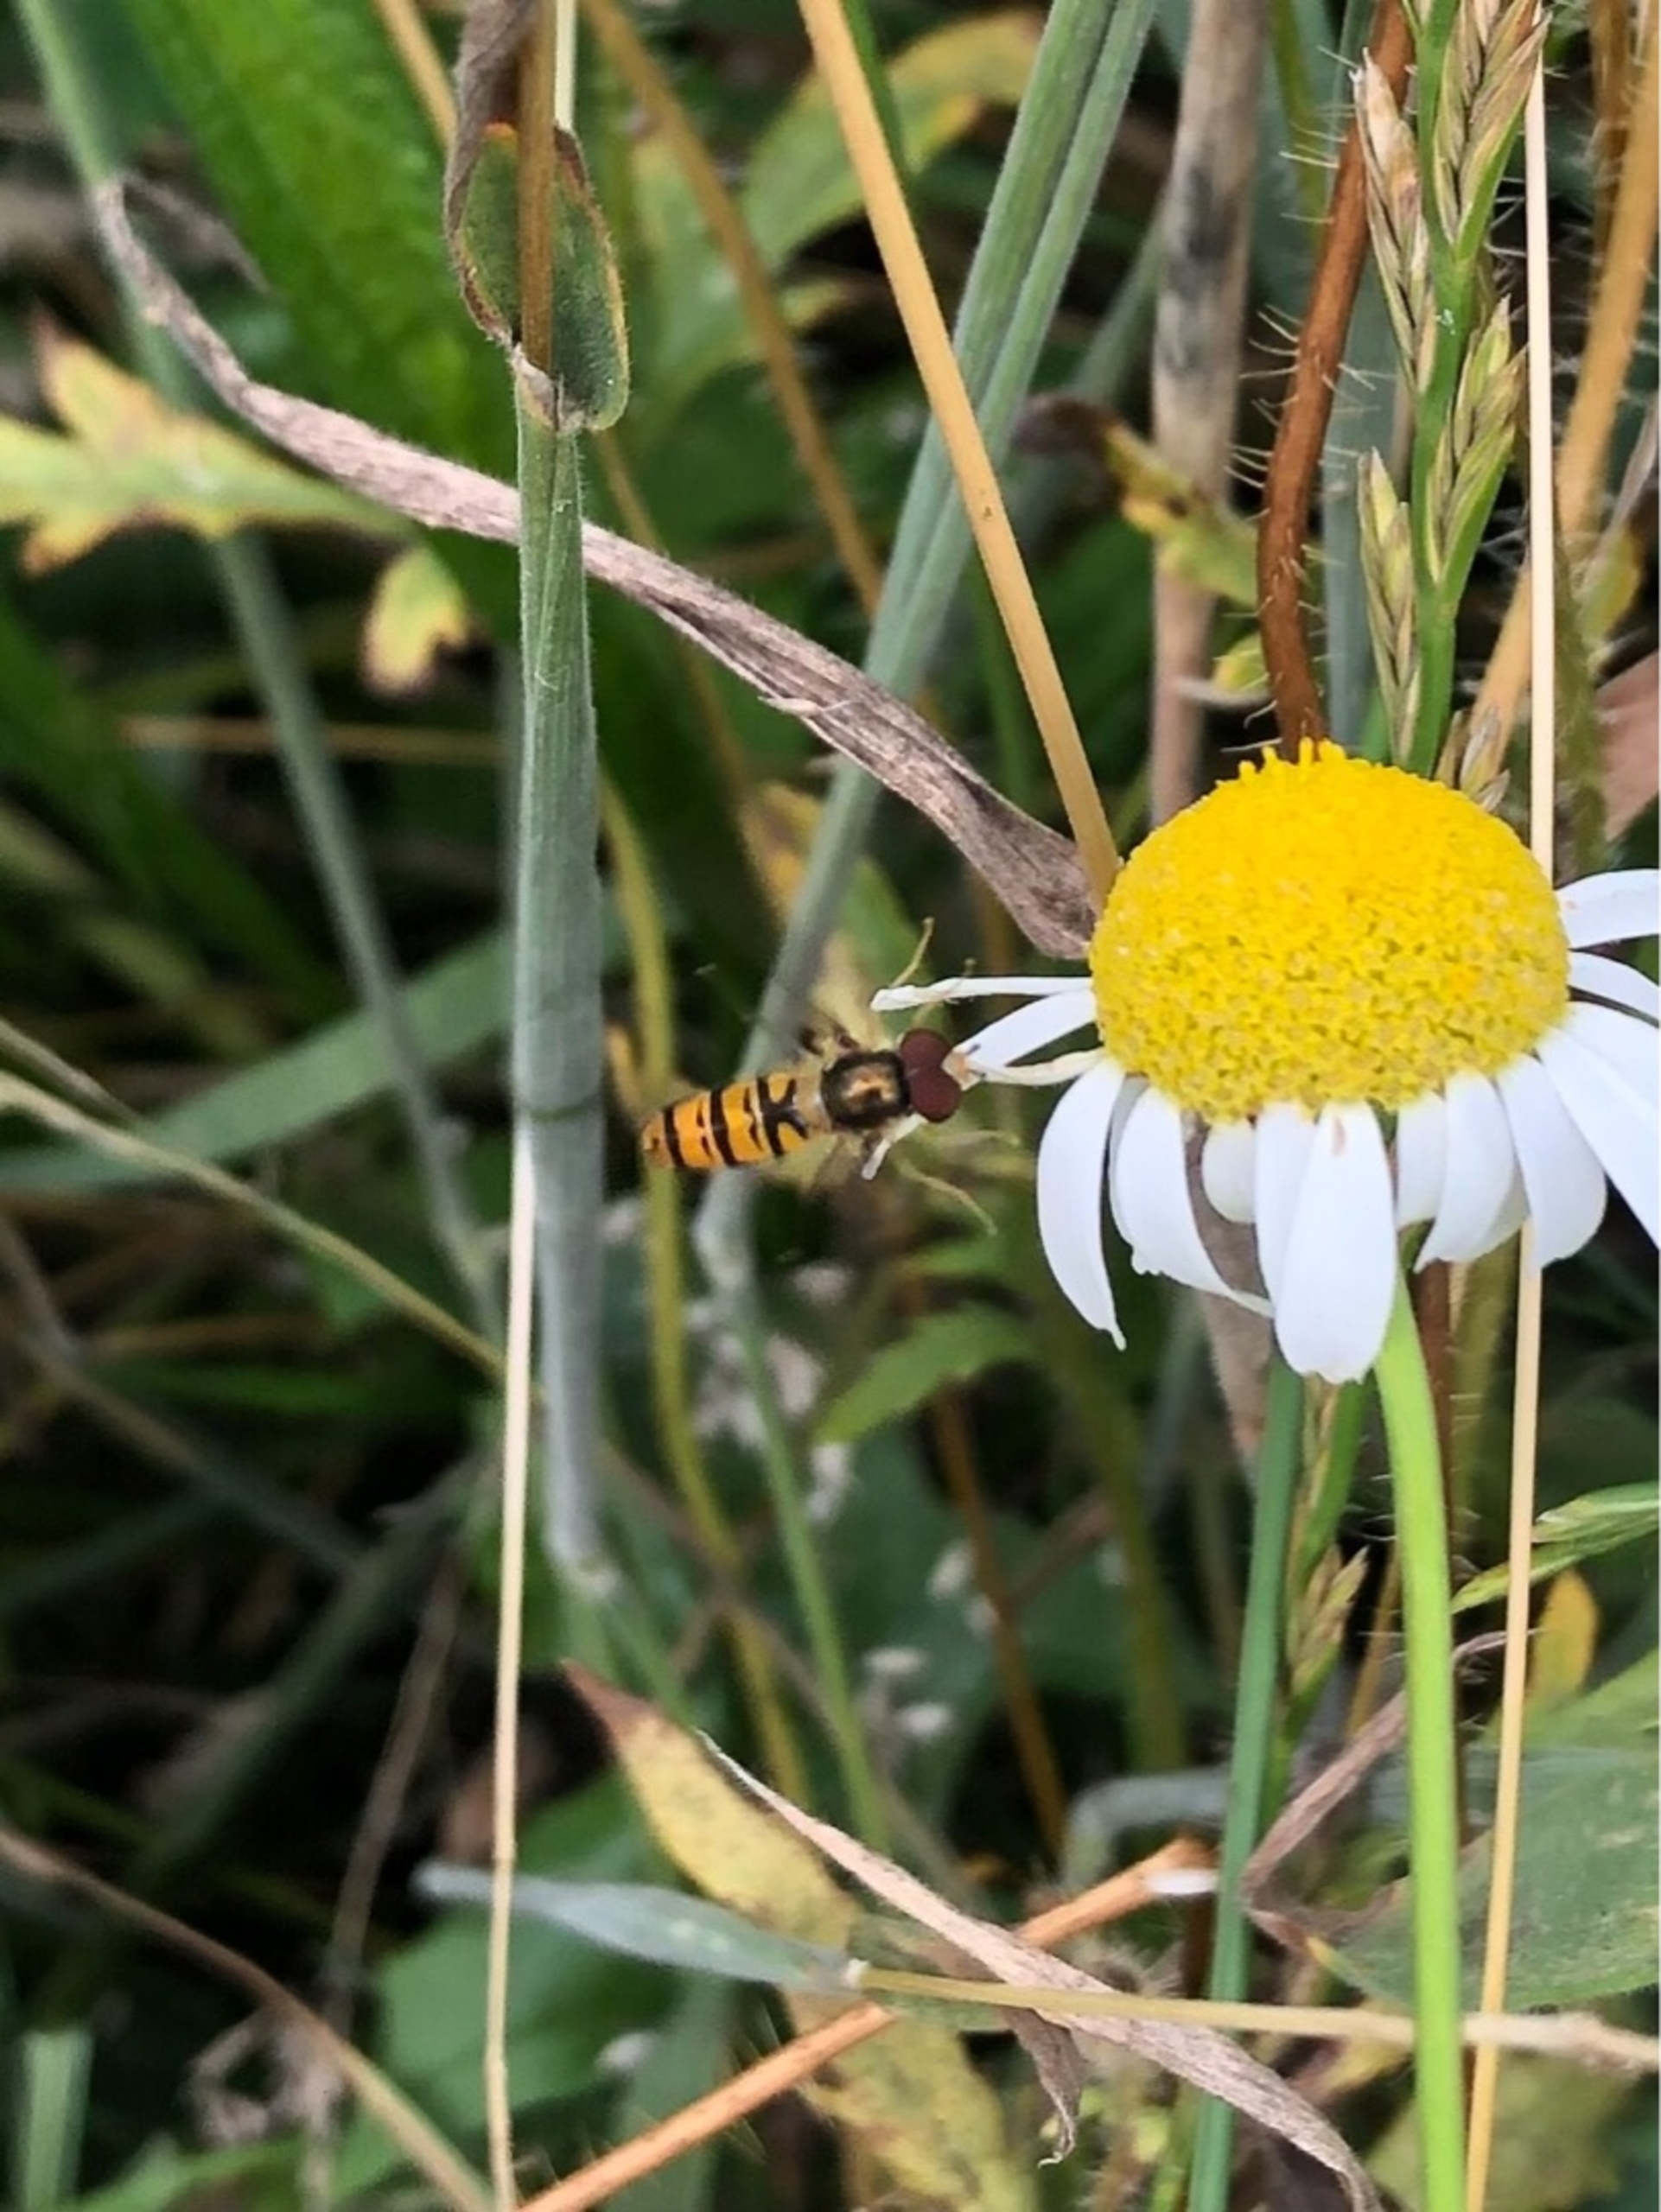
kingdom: Animalia
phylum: Arthropoda
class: Insecta
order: Diptera
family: Syrphidae
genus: Episyrphus
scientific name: Episyrphus balteatus
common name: Dobbeltbåndet svirreflue
